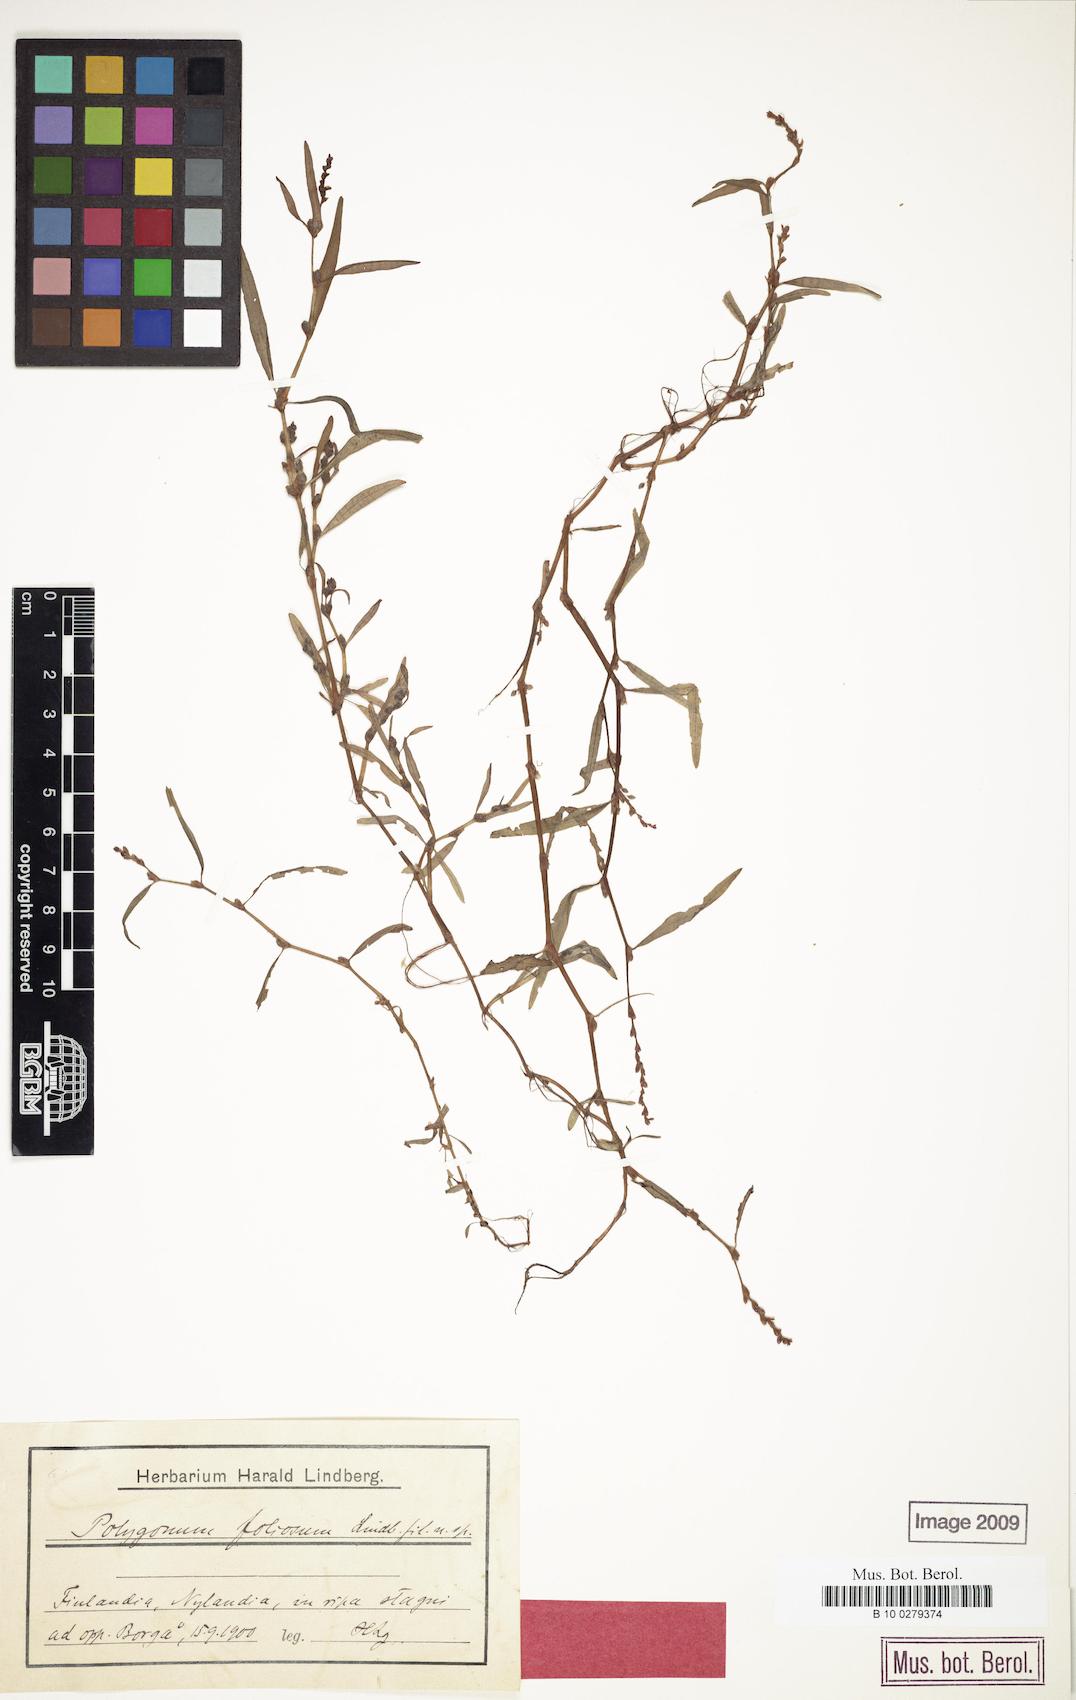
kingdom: Plantae
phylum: Tracheophyta
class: Magnoliopsida
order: Caryophyllales
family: Polygonaceae
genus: Persicaria
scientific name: Persicaria foliosa
